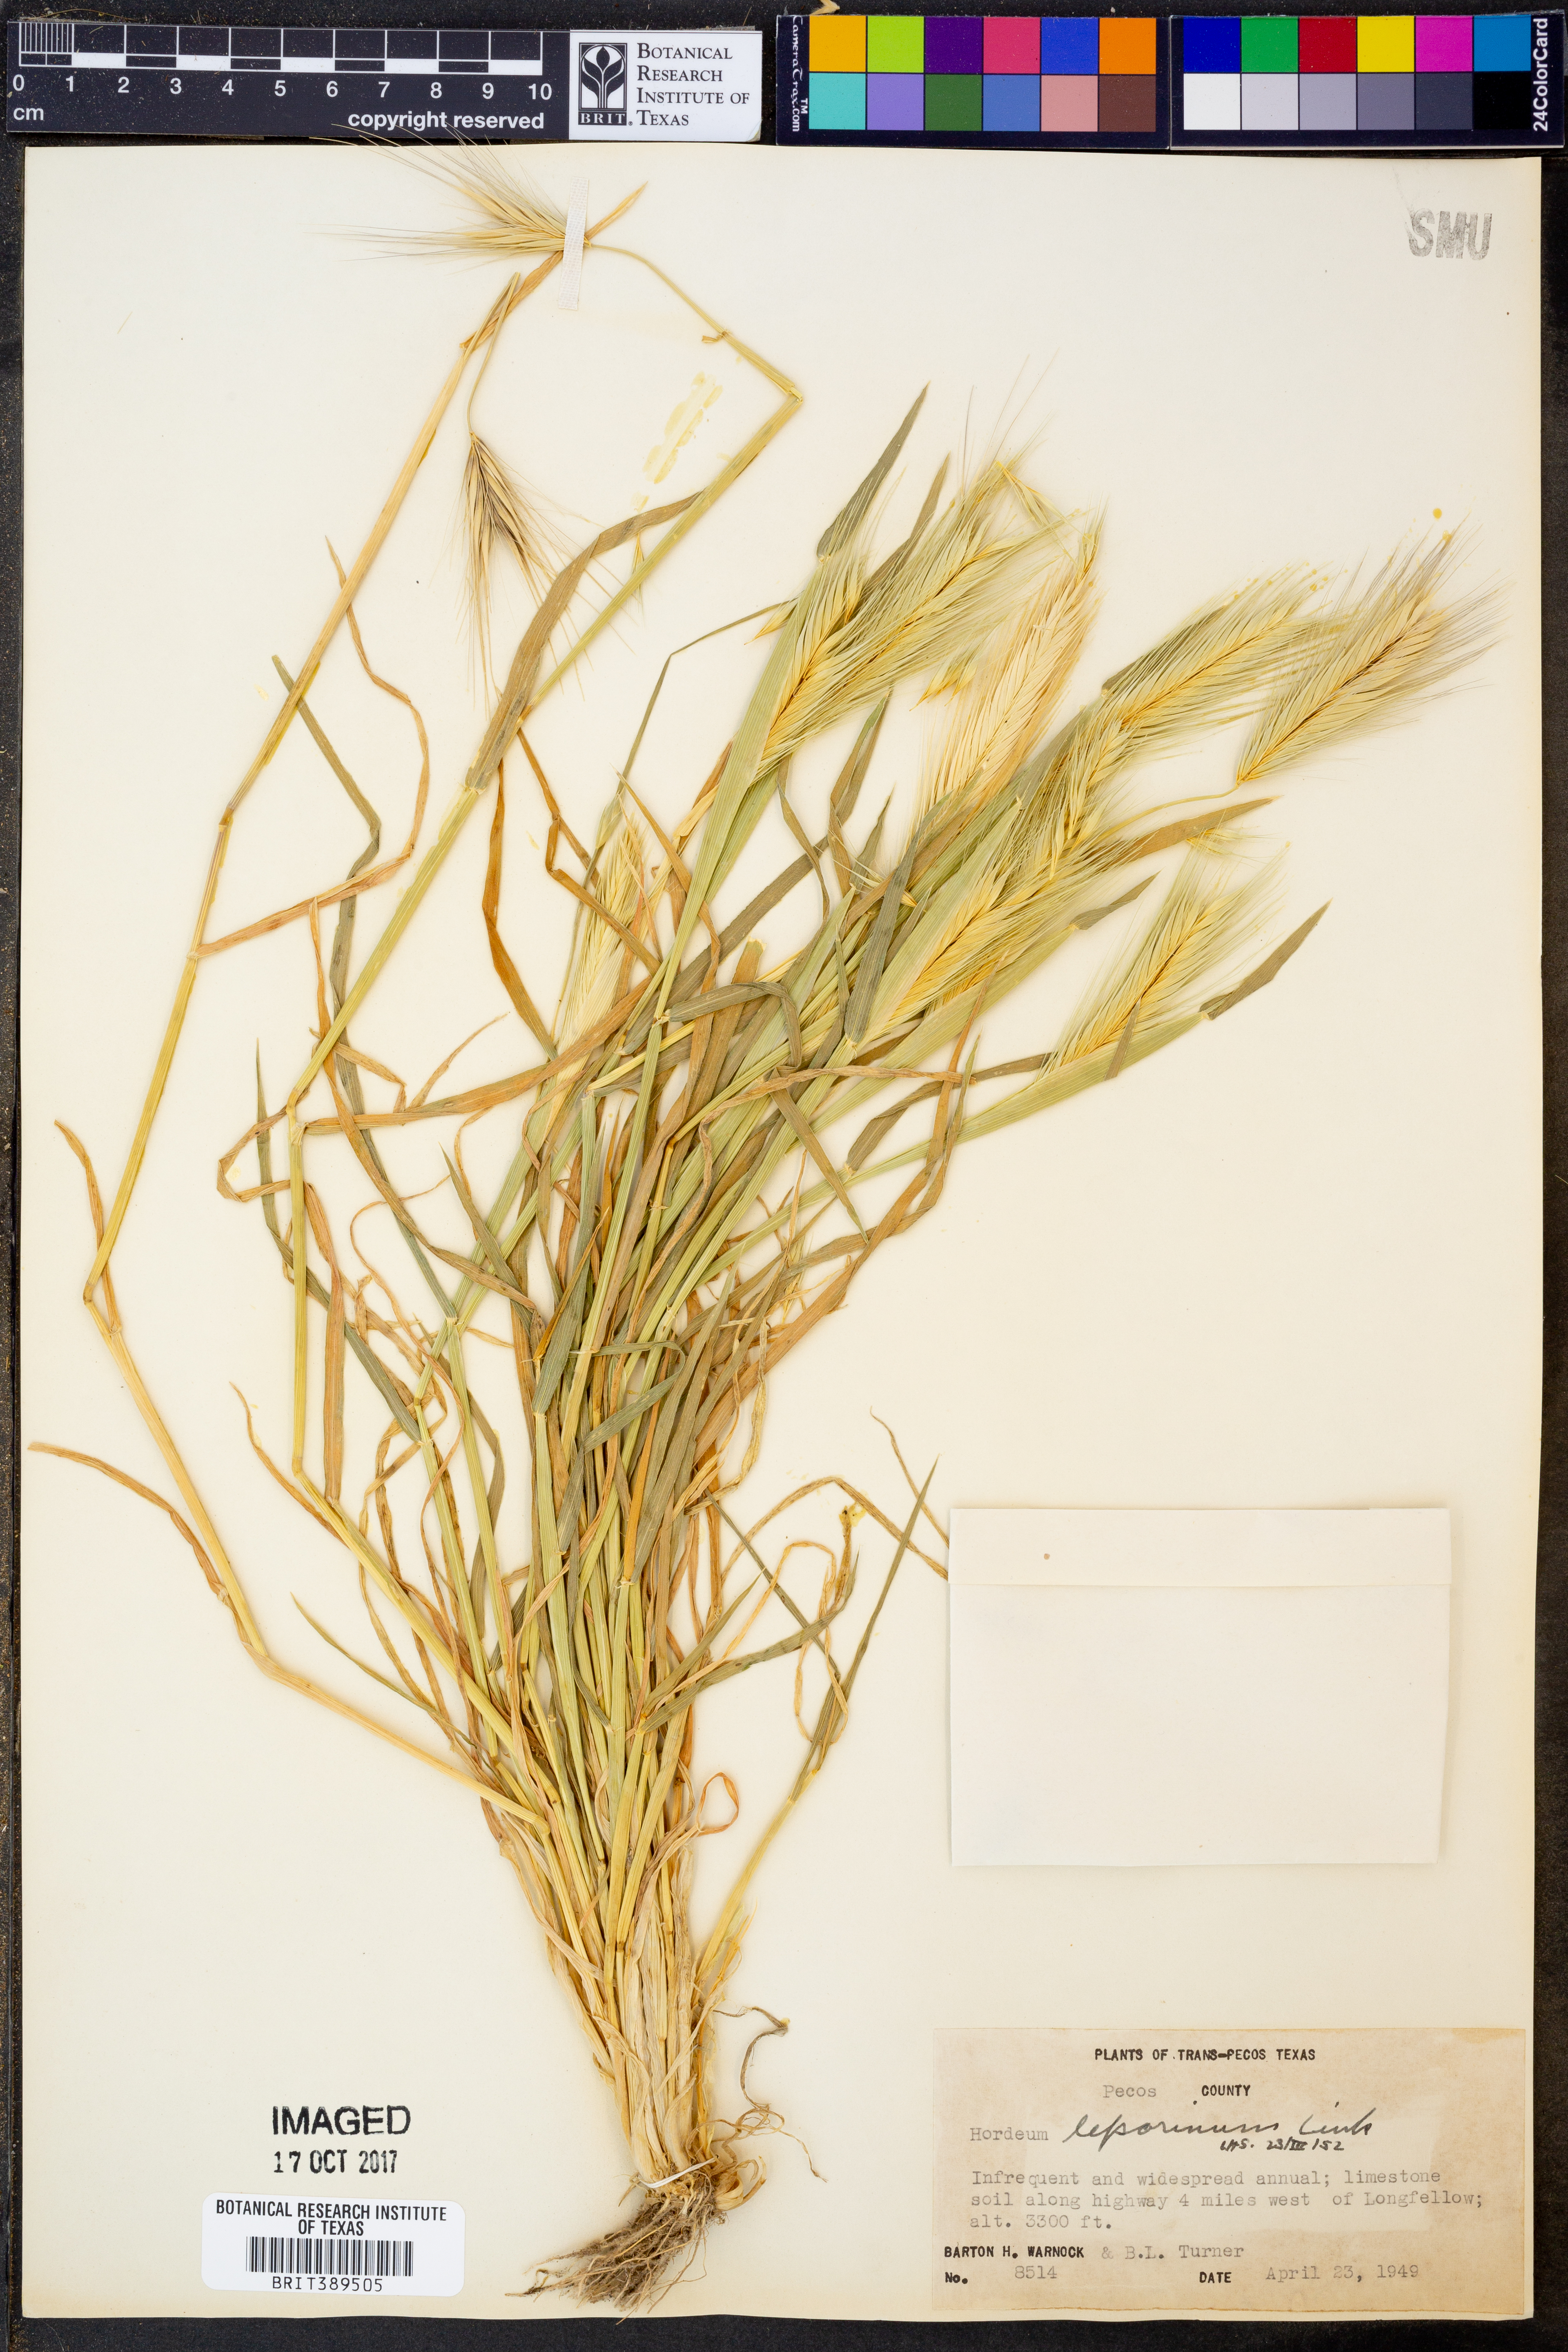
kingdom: Plantae
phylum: Tracheophyta
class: Liliopsida
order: Poales
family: Poaceae
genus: Hordeum
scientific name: Hordeum murinum
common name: Wall barley
